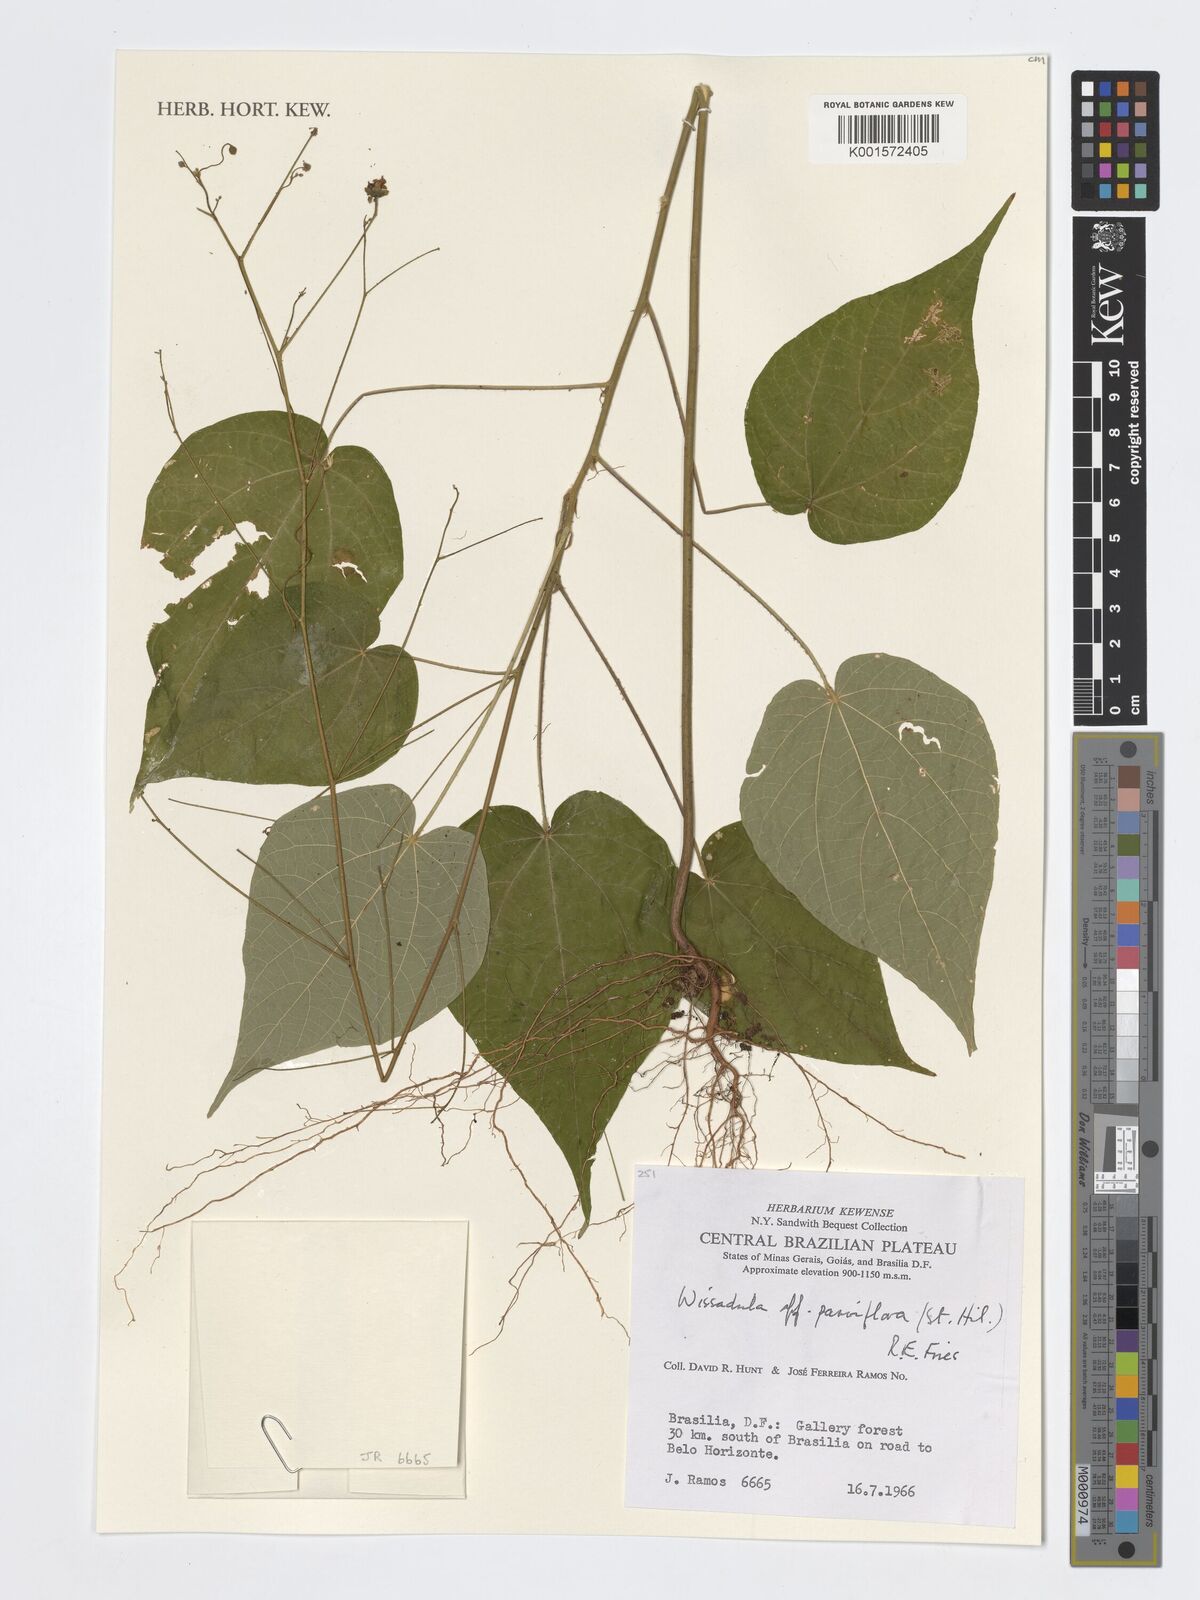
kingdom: Plantae
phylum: Tracheophyta
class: Magnoliopsida
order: Malvales
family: Malvaceae
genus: Wissadula
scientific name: Wissadula parviflora
